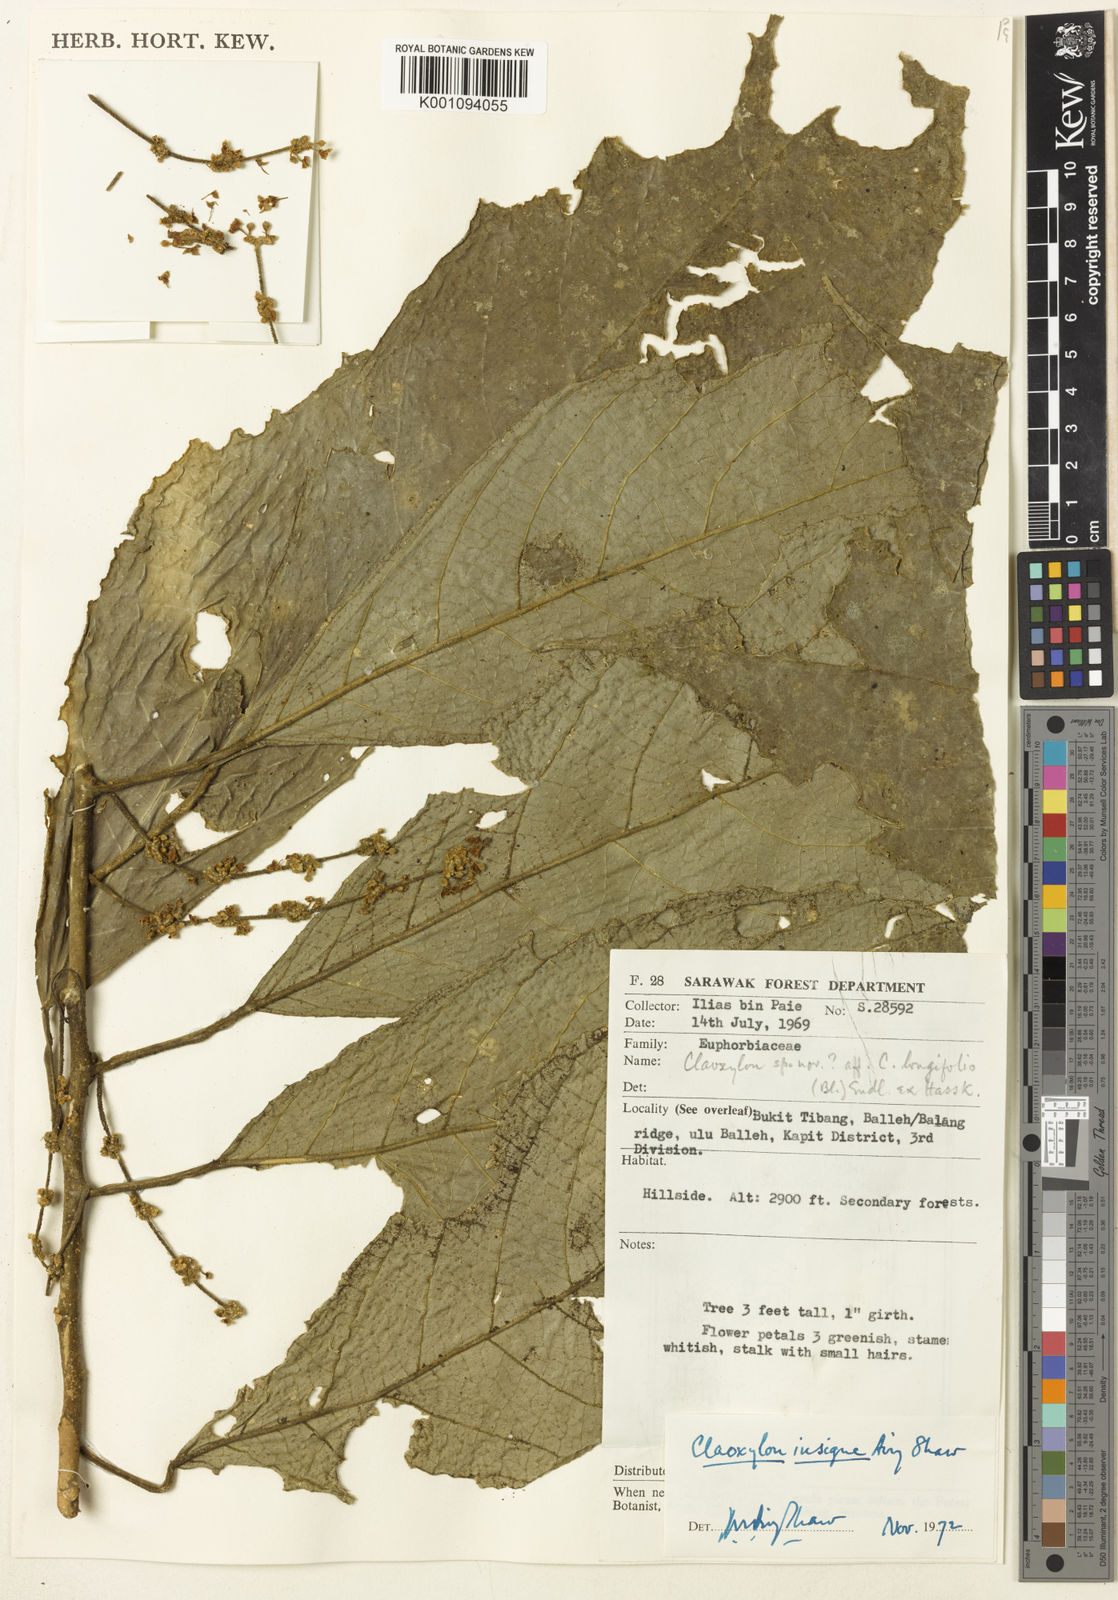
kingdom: Plantae
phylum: Tracheophyta
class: Magnoliopsida
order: Malpighiales
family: Euphorbiaceae
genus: Claoxylon
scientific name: Claoxylon insigne
